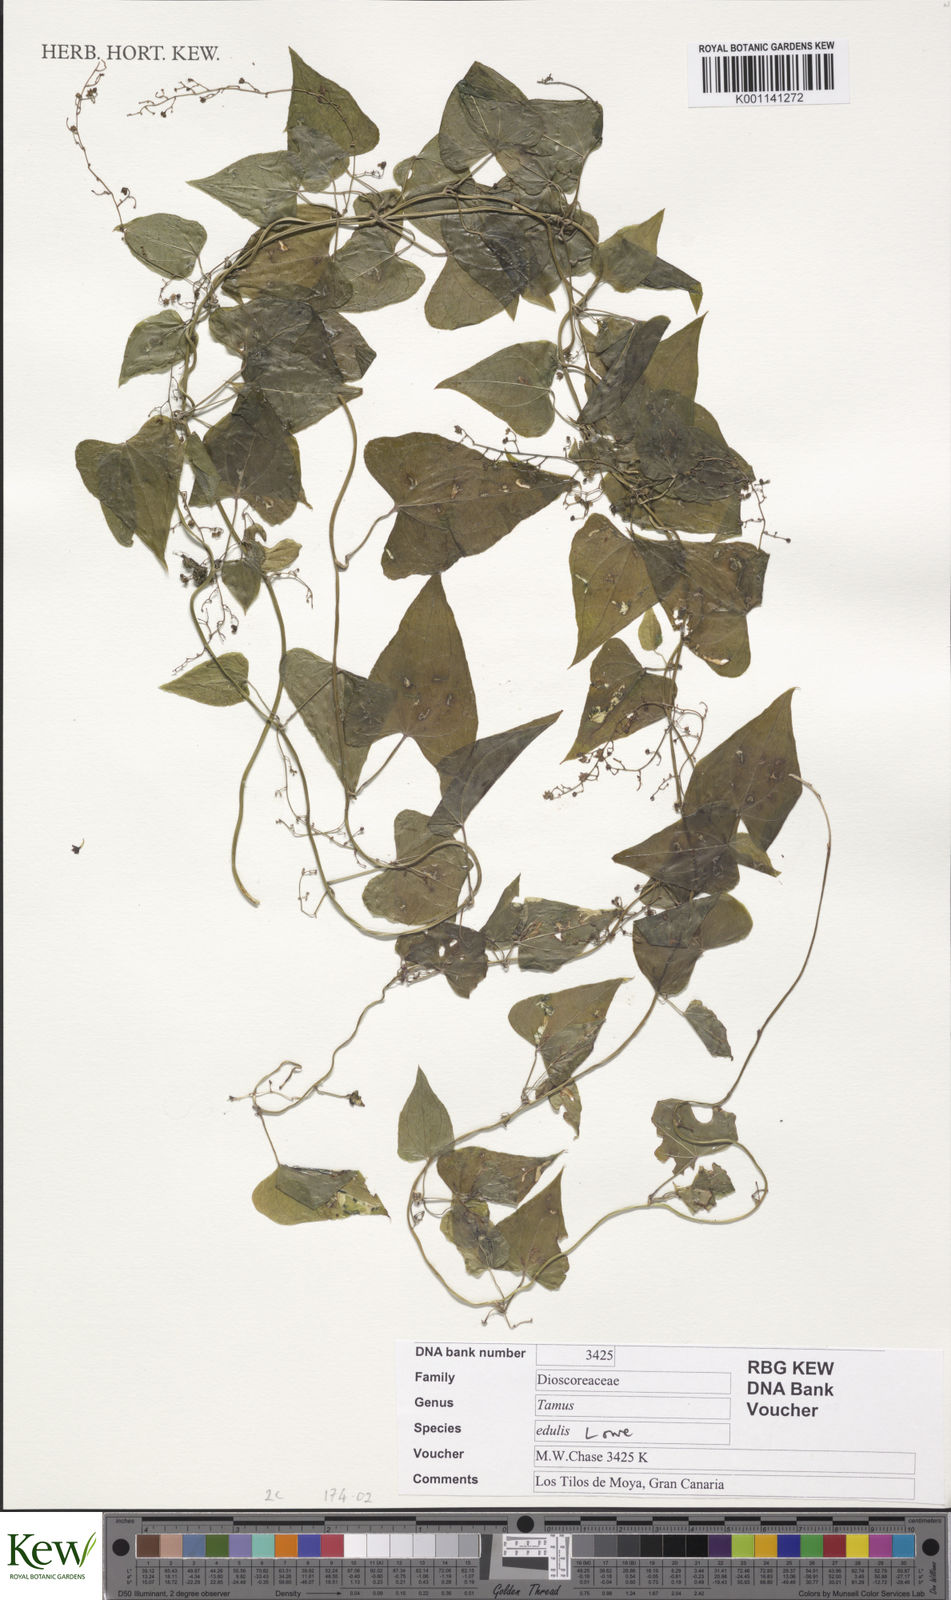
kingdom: Plantae
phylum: Tracheophyta
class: Liliopsida
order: Dioscoreales
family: Dioscoreaceae
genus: Dioscorea
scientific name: Dioscorea
